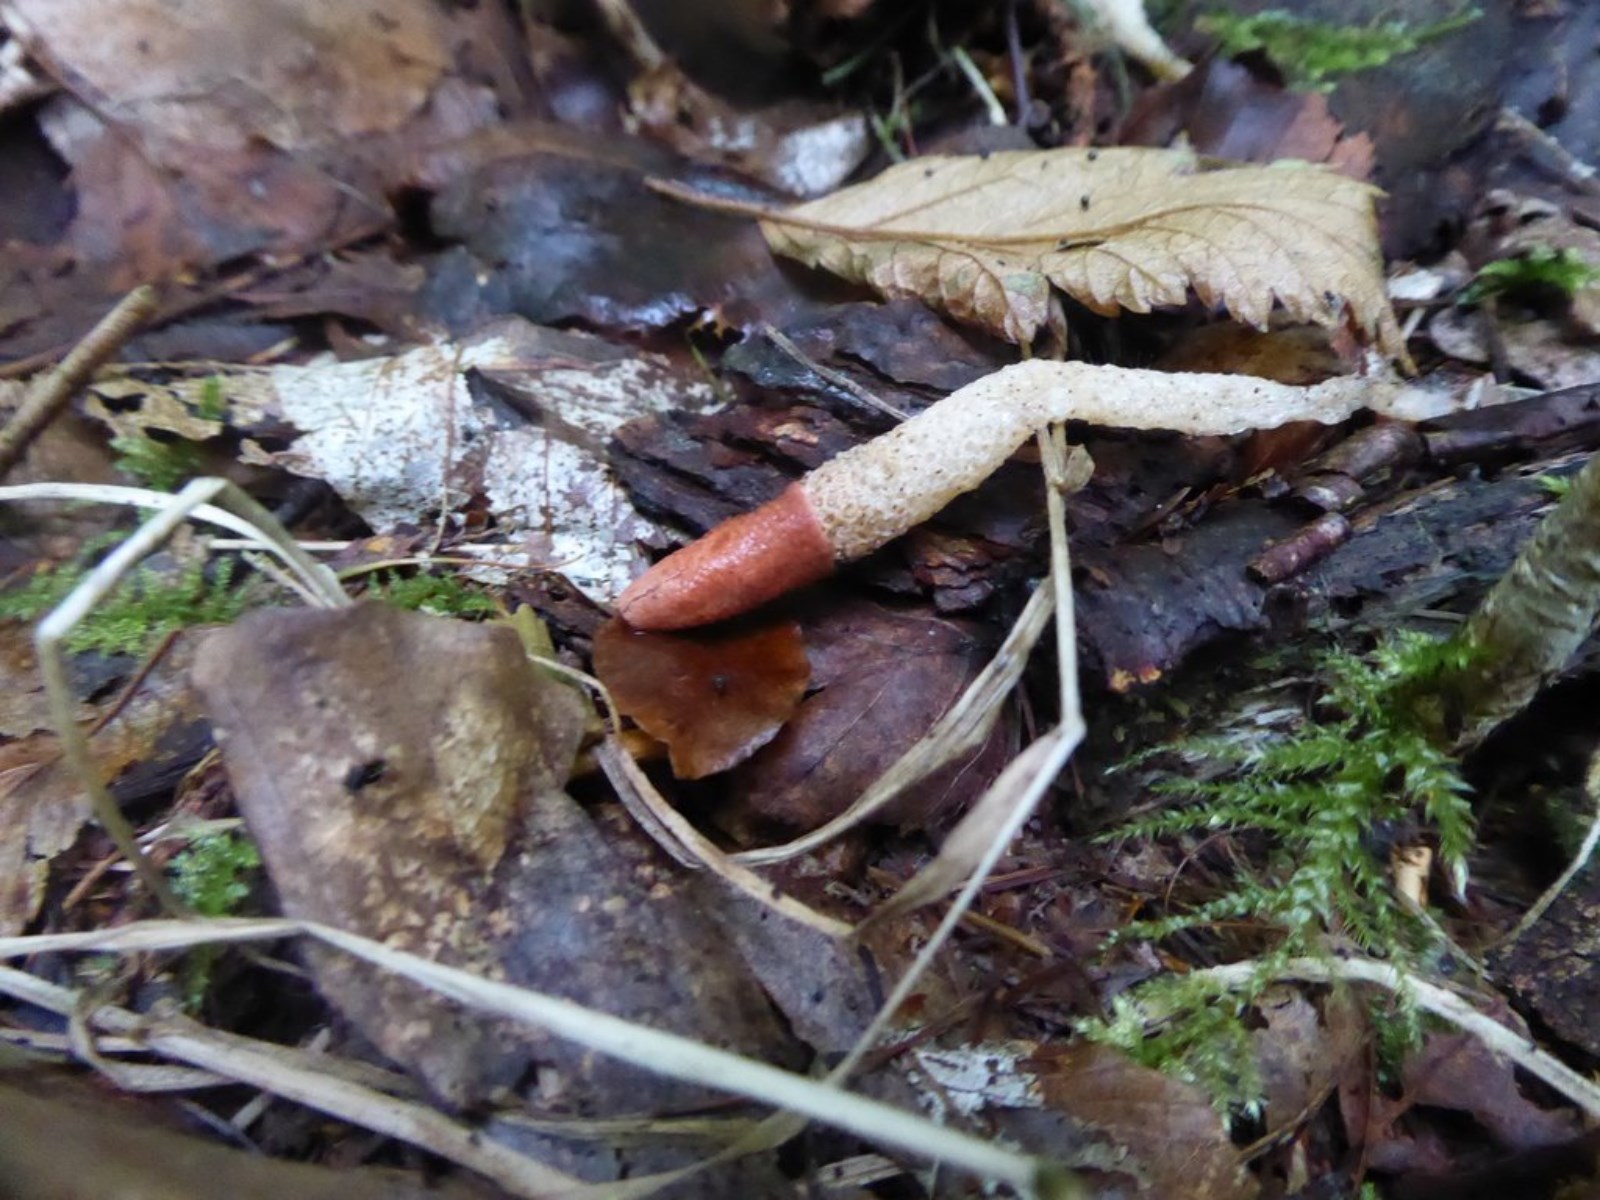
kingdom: Fungi
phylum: Basidiomycota
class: Agaricomycetes
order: Phallales
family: Phallaceae
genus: Mutinus
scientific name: Mutinus caninus
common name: hunde-stinksvamp
